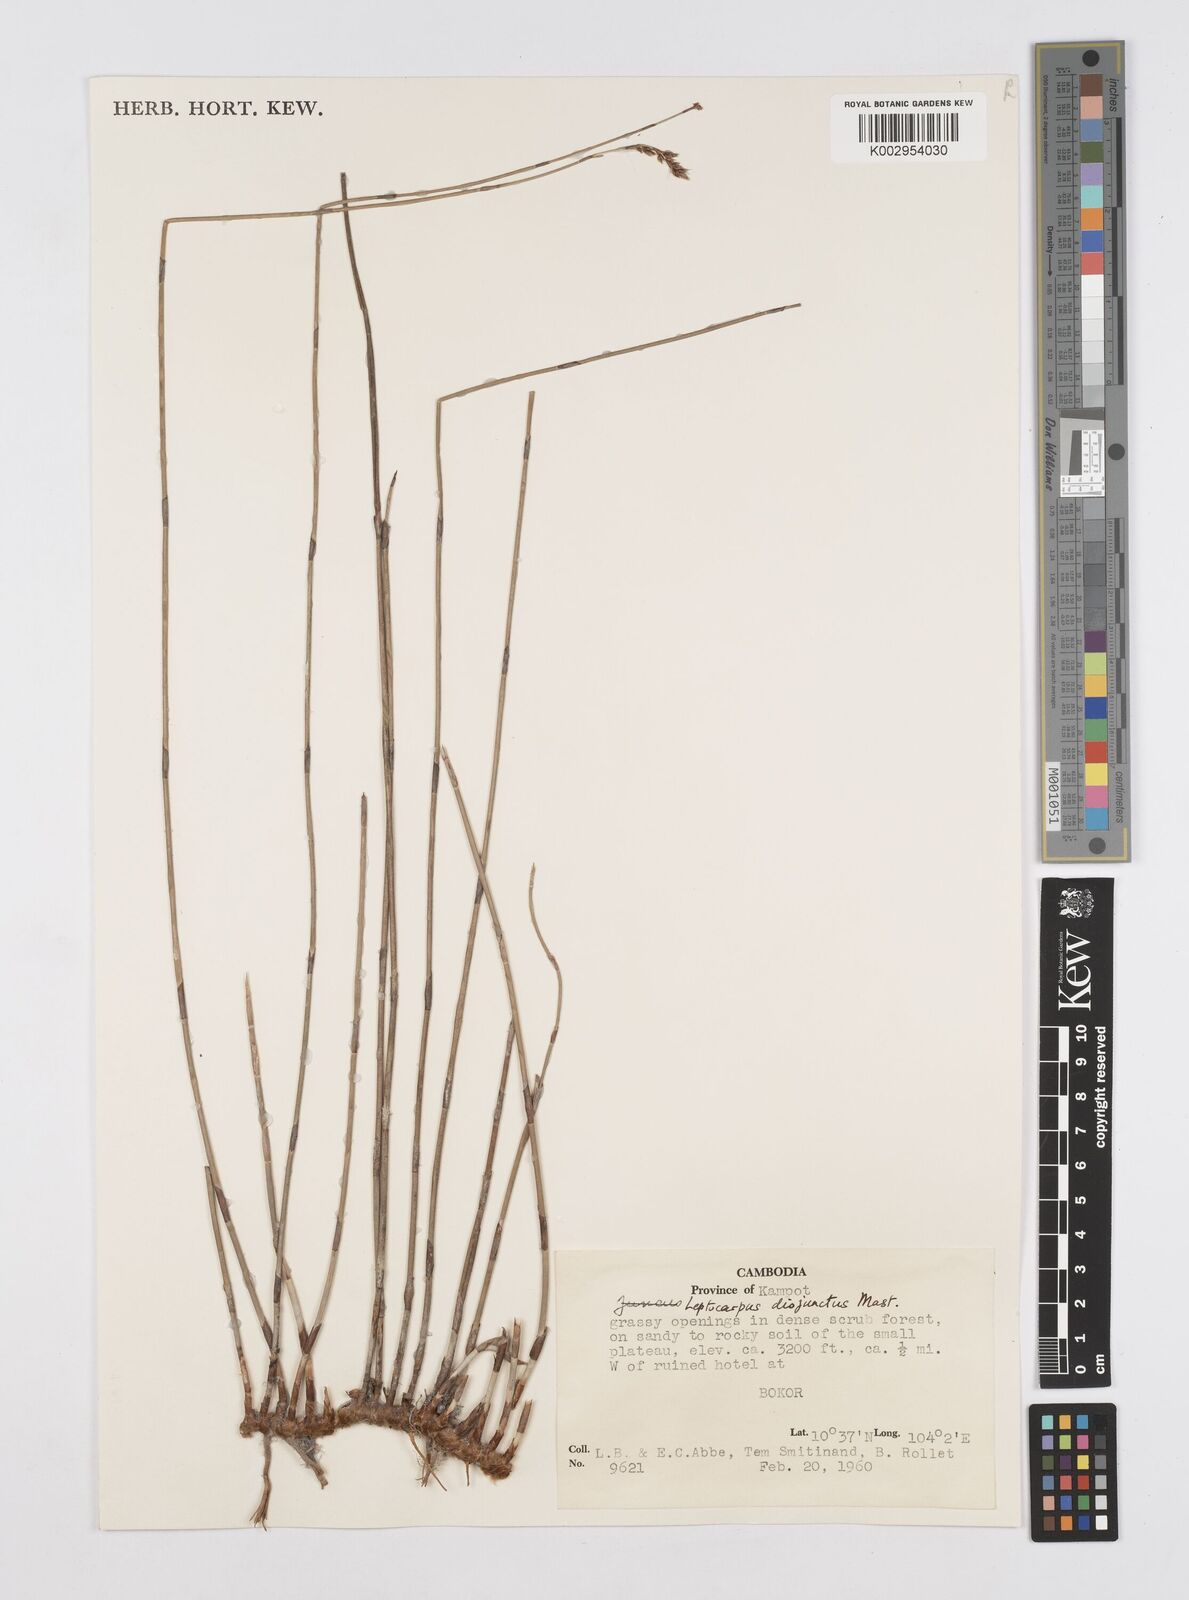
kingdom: Plantae
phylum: Tracheophyta
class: Liliopsida
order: Poales
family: Restionaceae
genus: Dapsilanthus
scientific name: Dapsilanthus disjunctus
